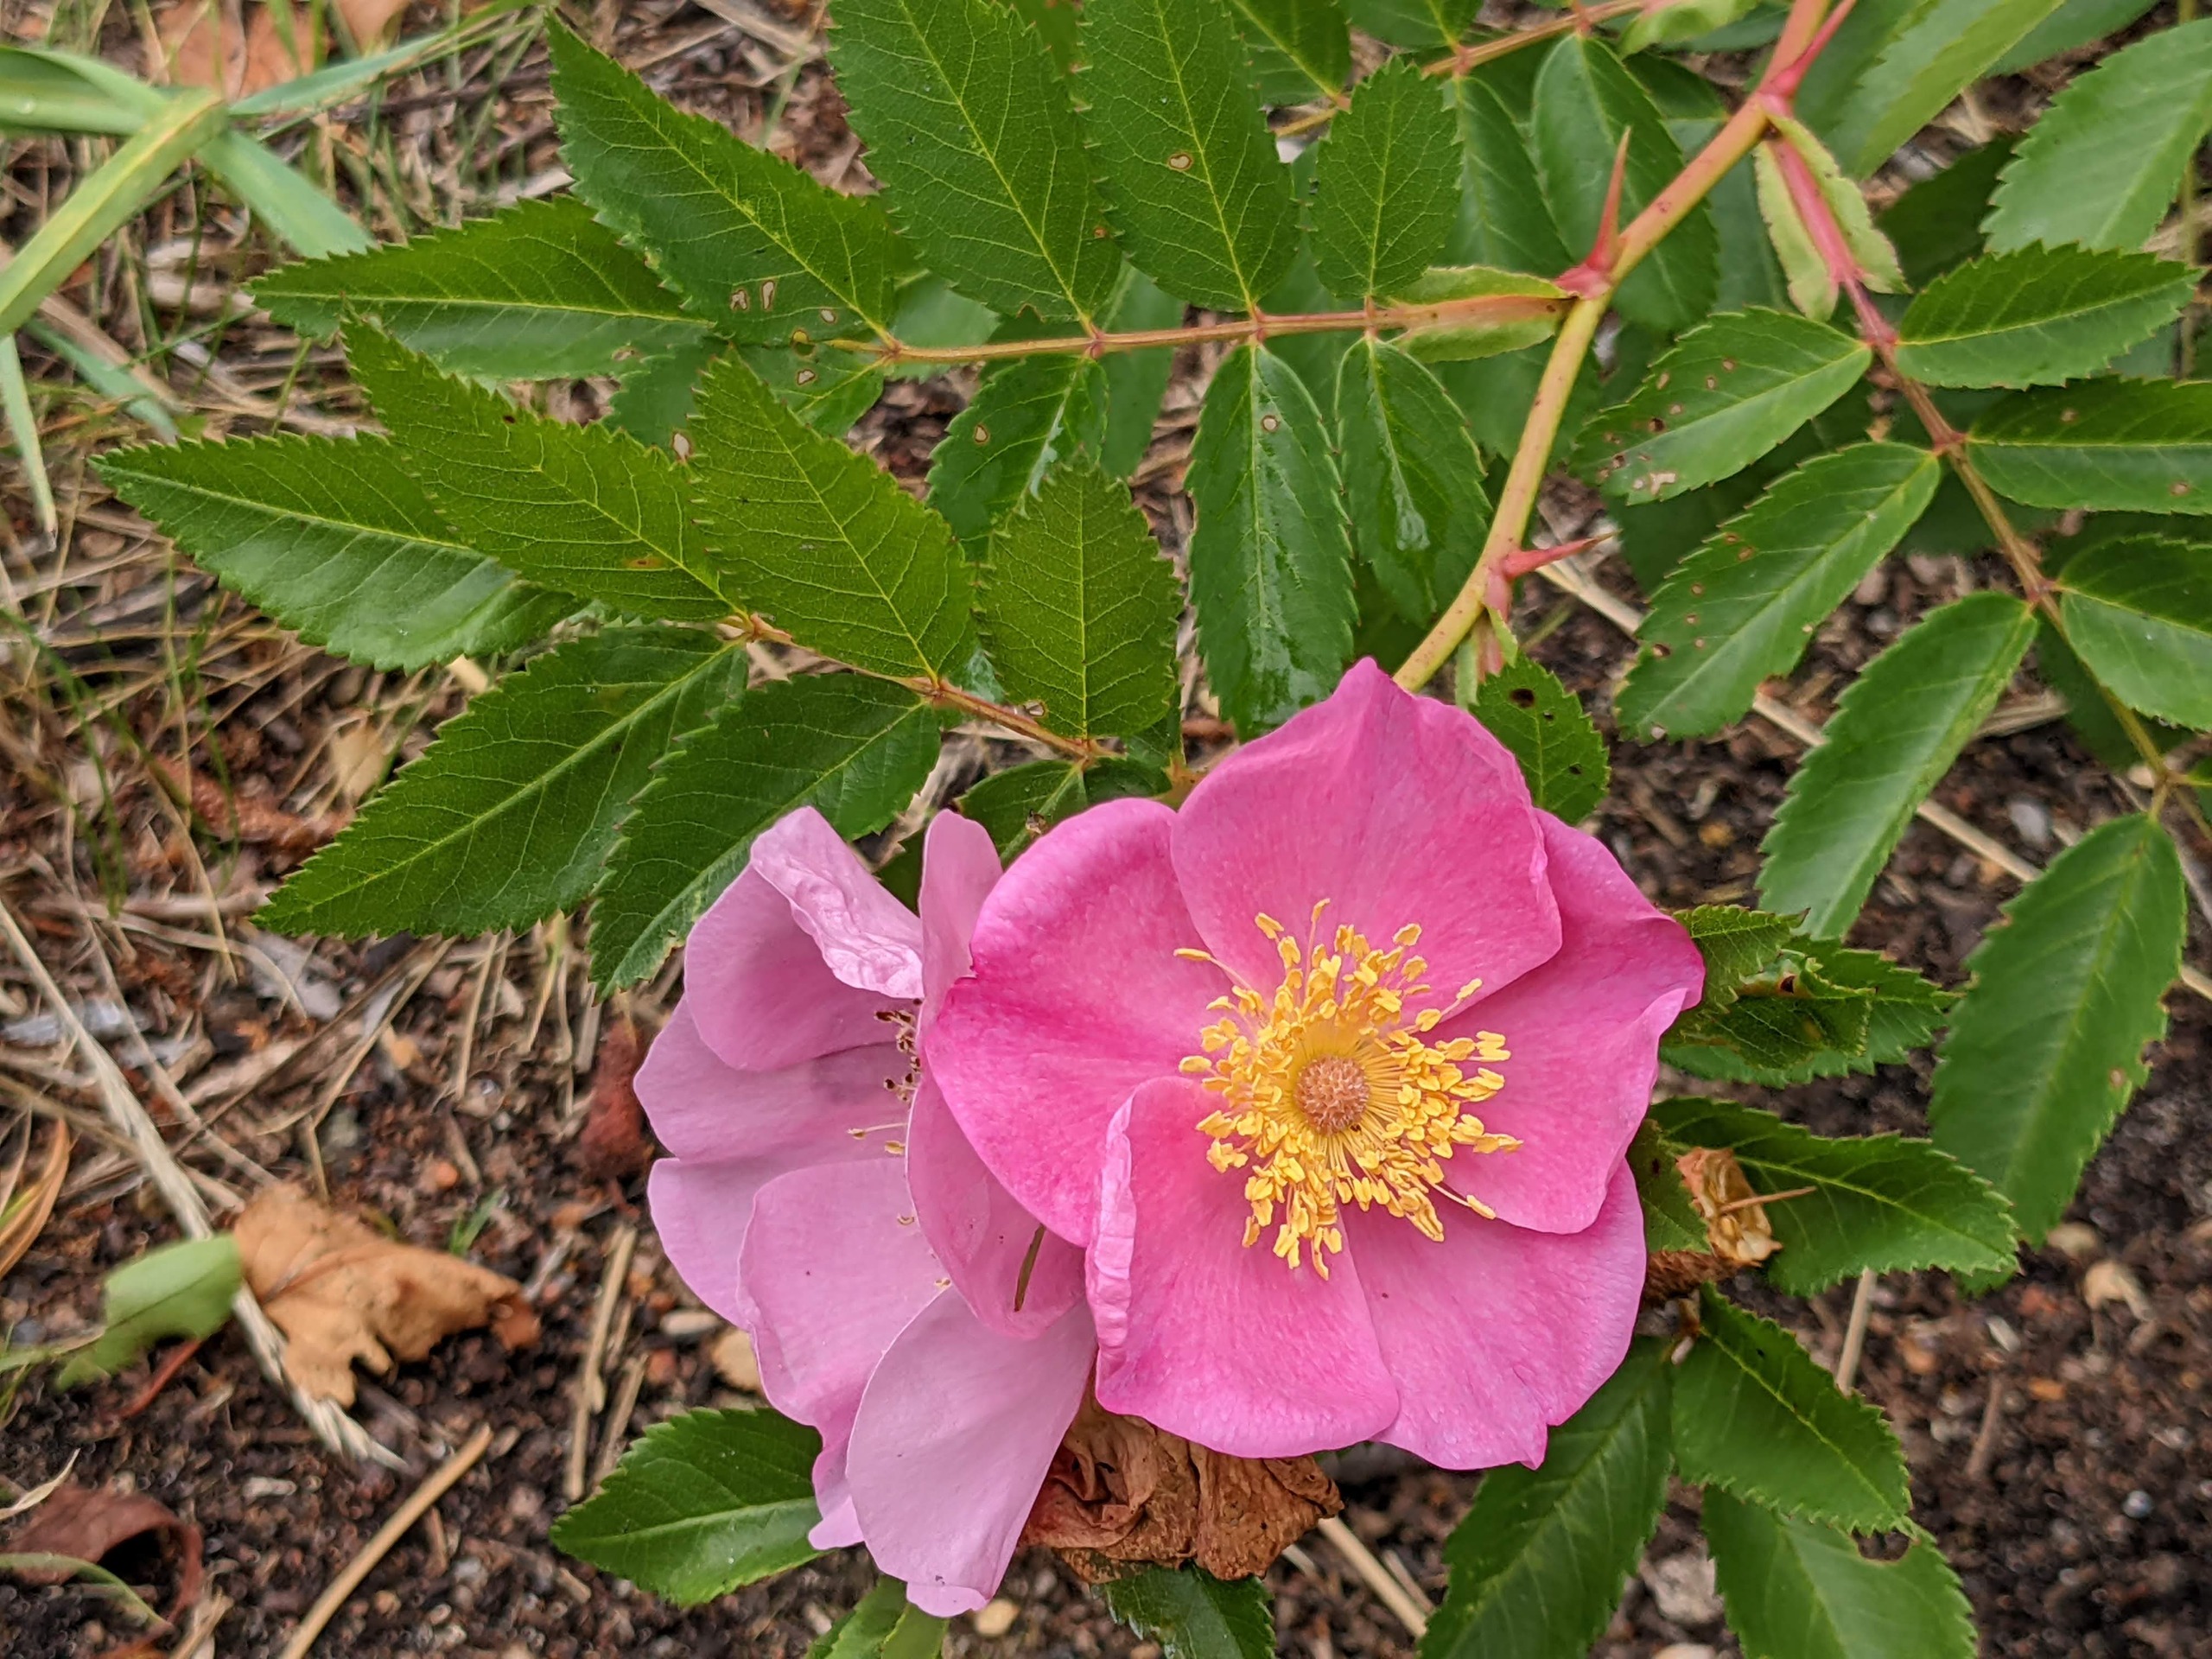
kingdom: Plantae
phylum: Tracheophyta
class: Magnoliopsida
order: Rosales
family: Rosaceae
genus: Rosa
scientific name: Rosa carolina
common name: Glansbladet rose
